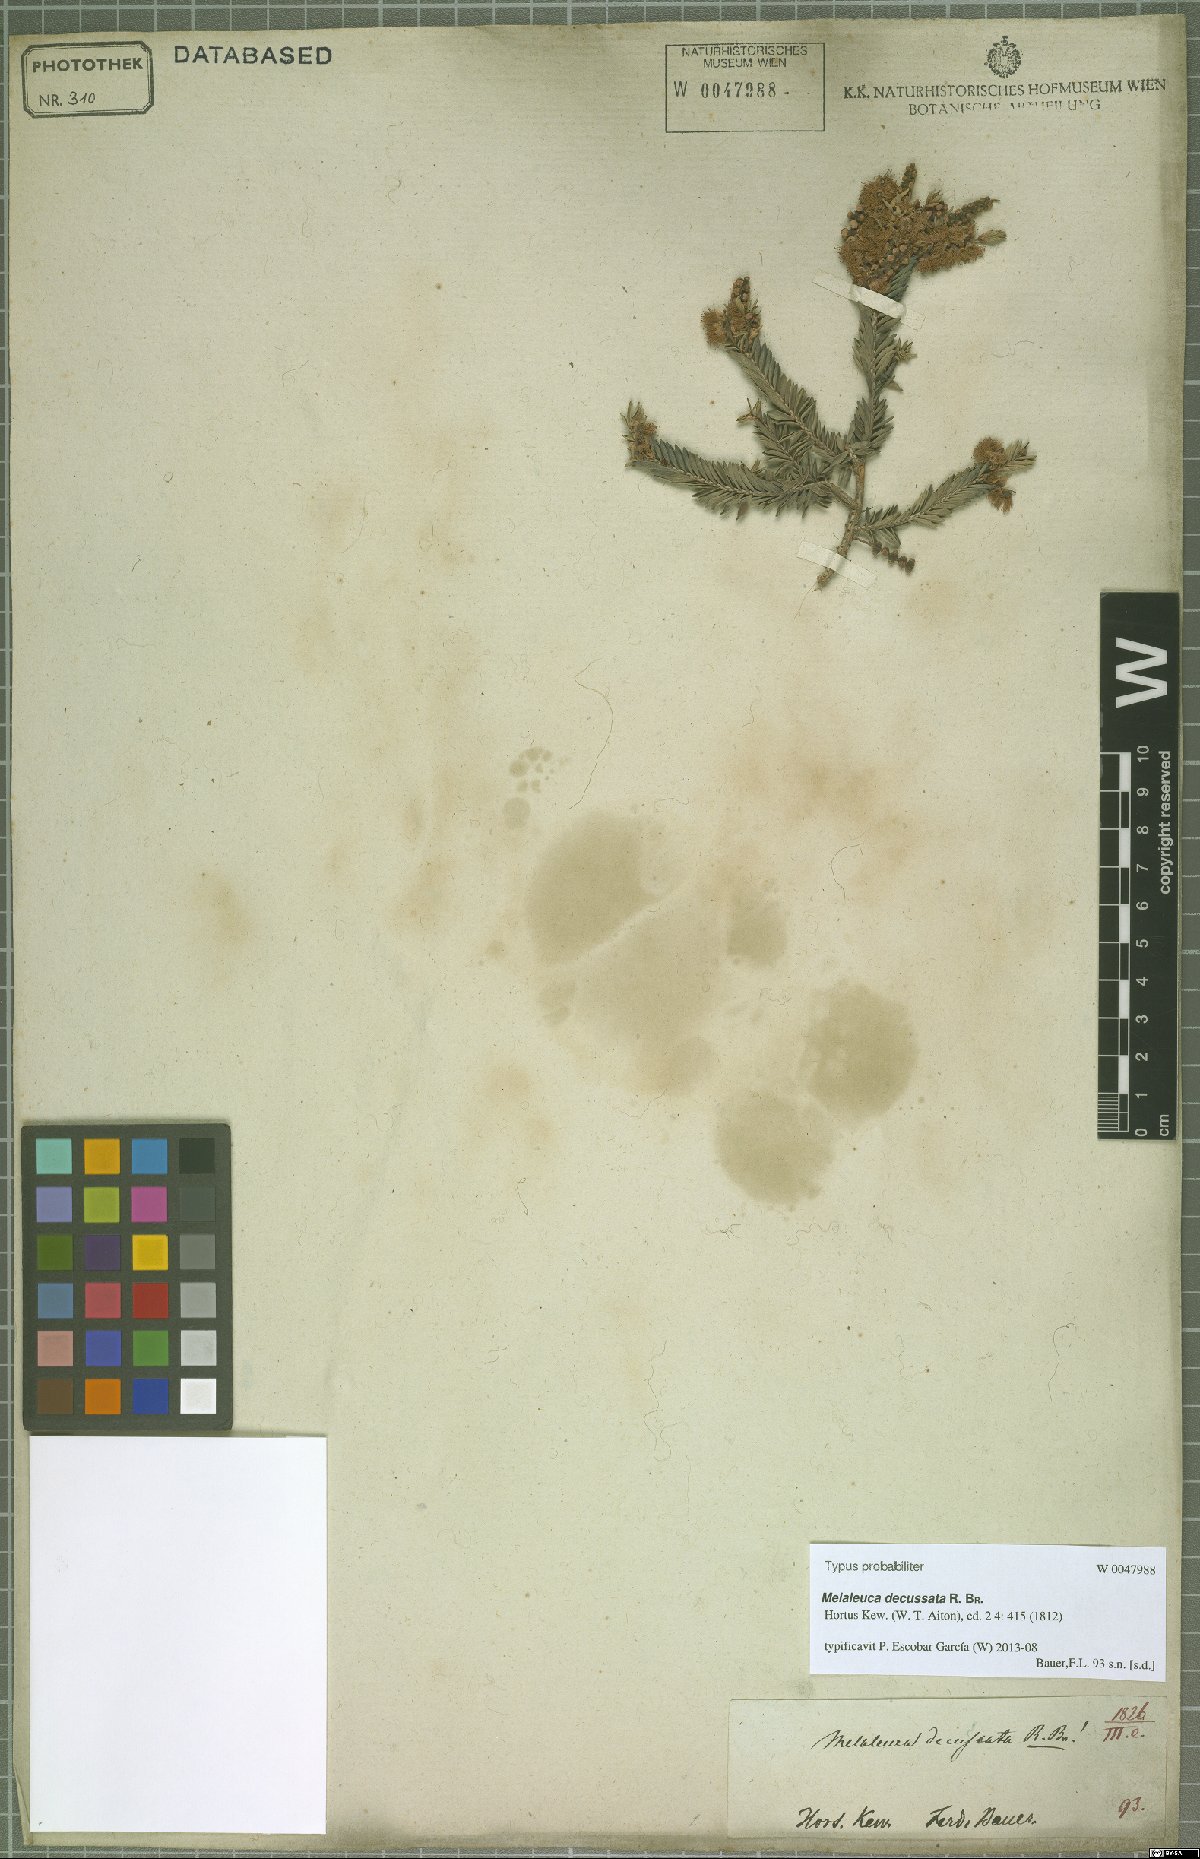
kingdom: Plantae
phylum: Tracheophyta
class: Magnoliopsida
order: Myrtales
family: Myrtaceae
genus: Melaleuca
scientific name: Melaleuca decussata
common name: Cross-leaf honey myrtle
